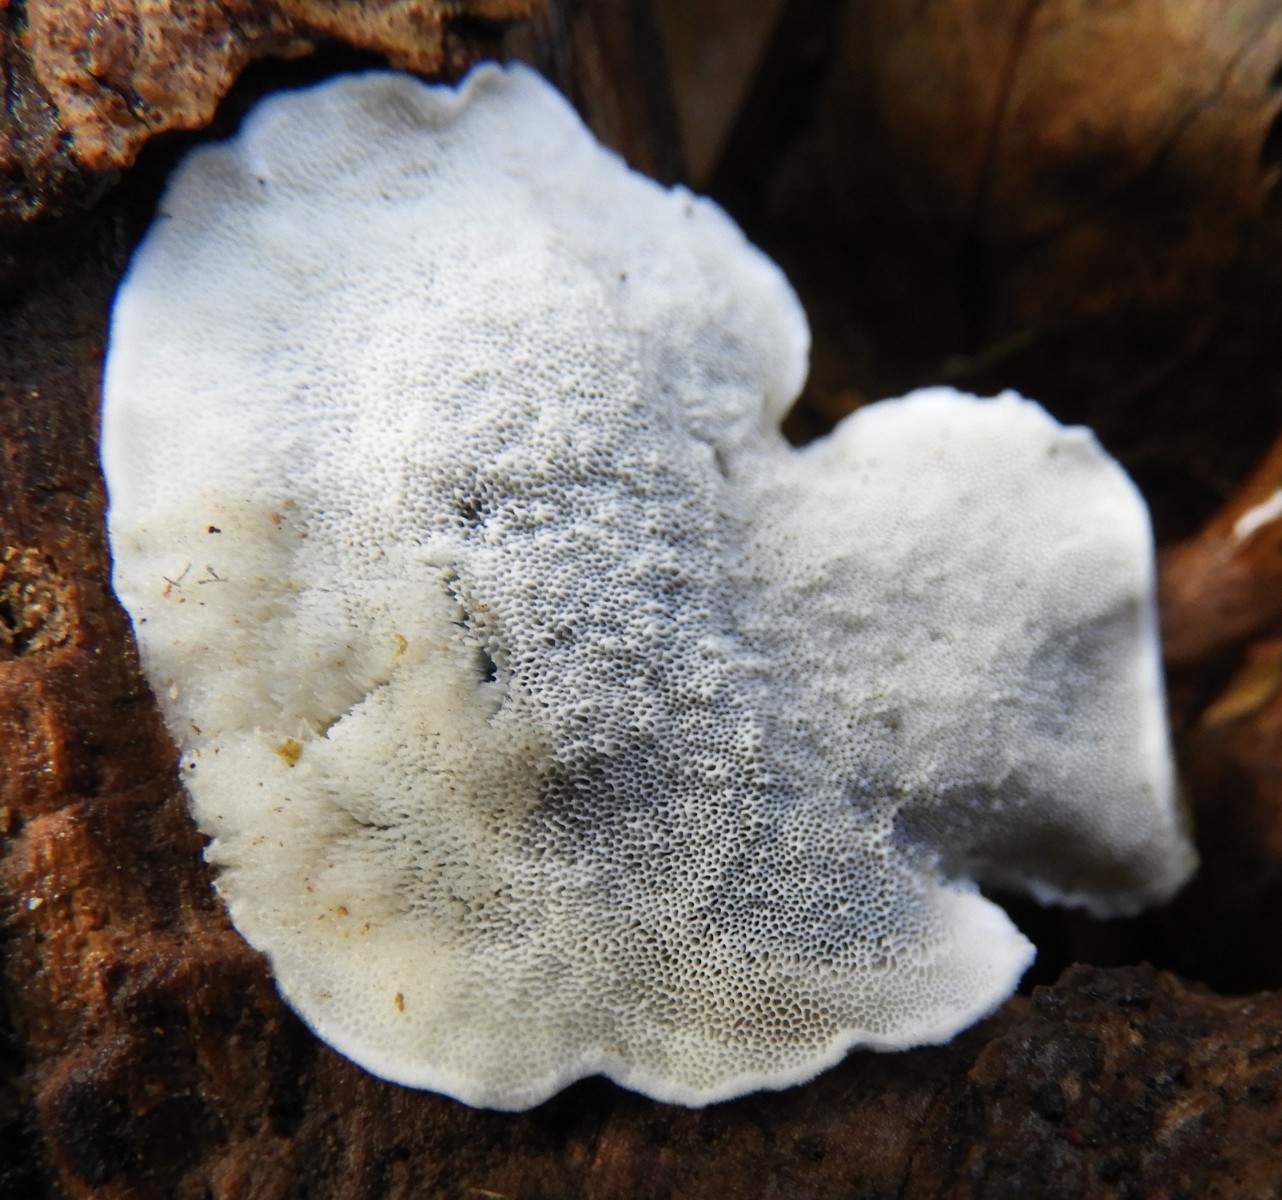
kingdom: Fungi
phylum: Basidiomycota
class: Agaricomycetes
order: Polyporales
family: Polyporaceae
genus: Cyanosporus
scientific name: Cyanosporus caesius
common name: blålig kødporesvamp
